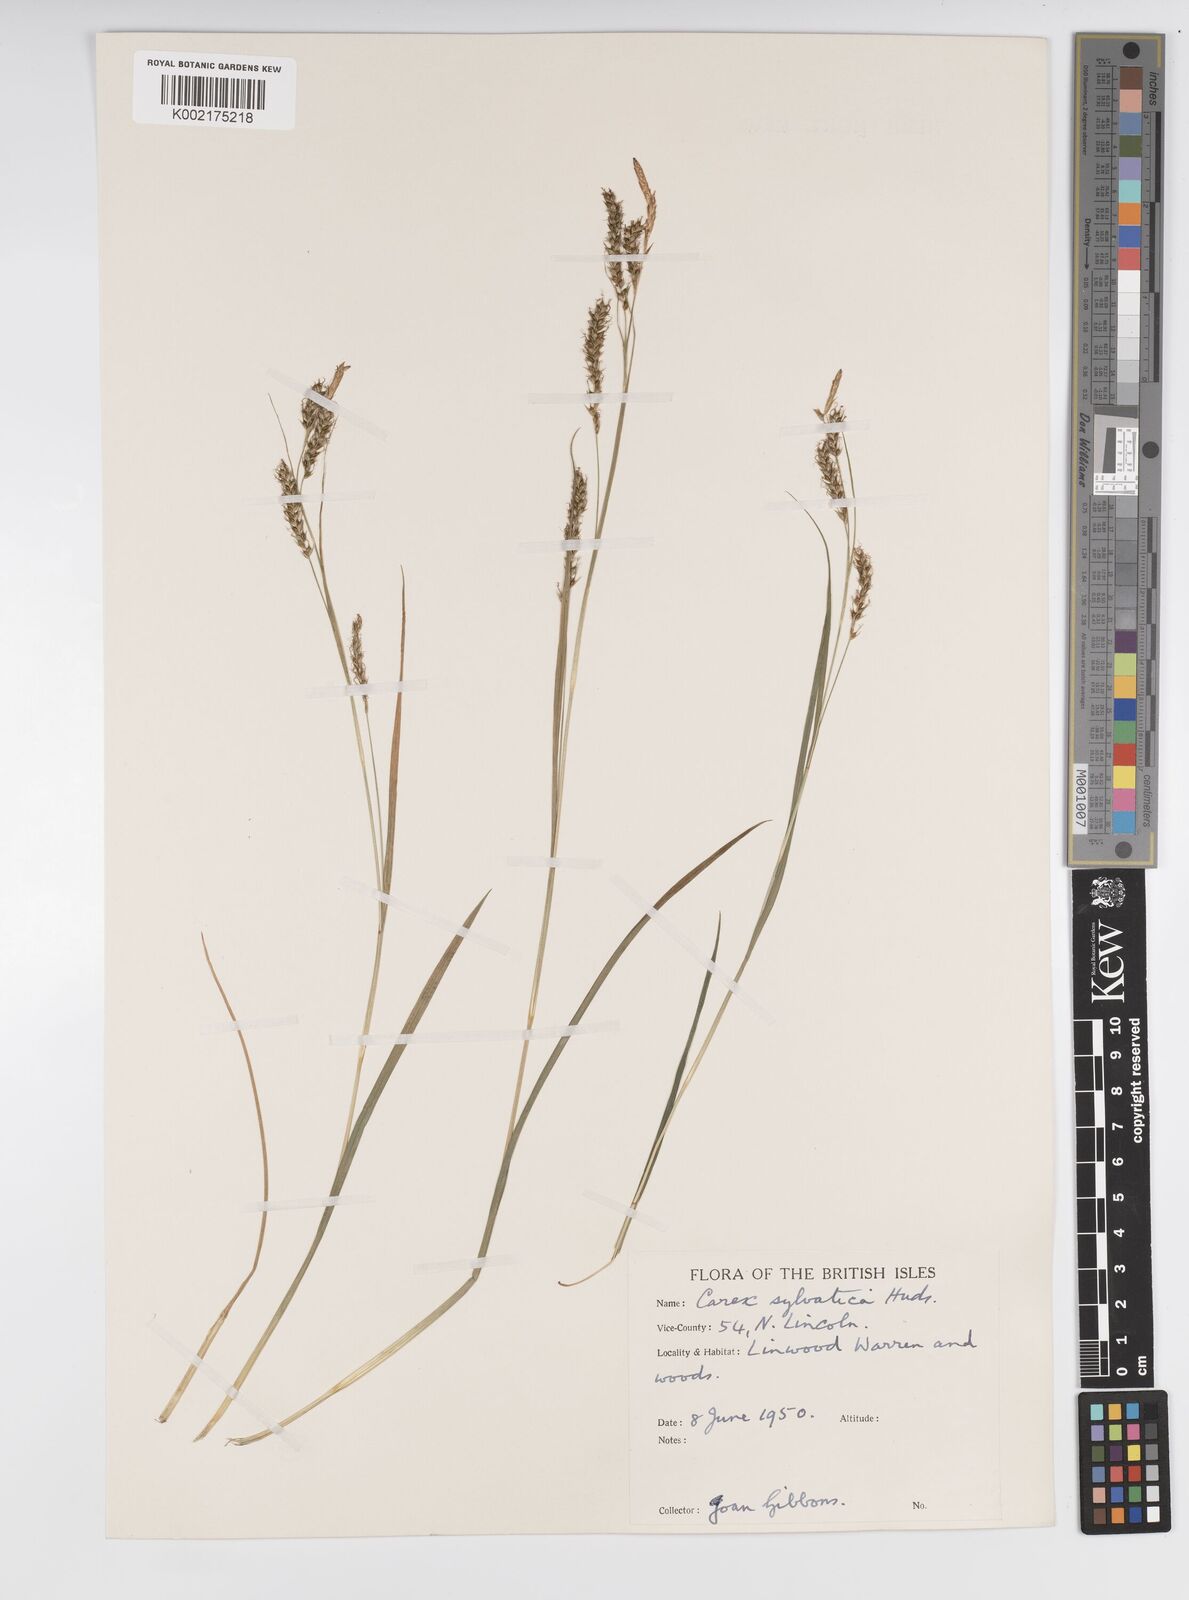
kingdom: Plantae
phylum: Tracheophyta
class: Liliopsida
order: Poales
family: Cyperaceae
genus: Carex
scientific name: Carex sylvatica
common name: Wood-sedge
